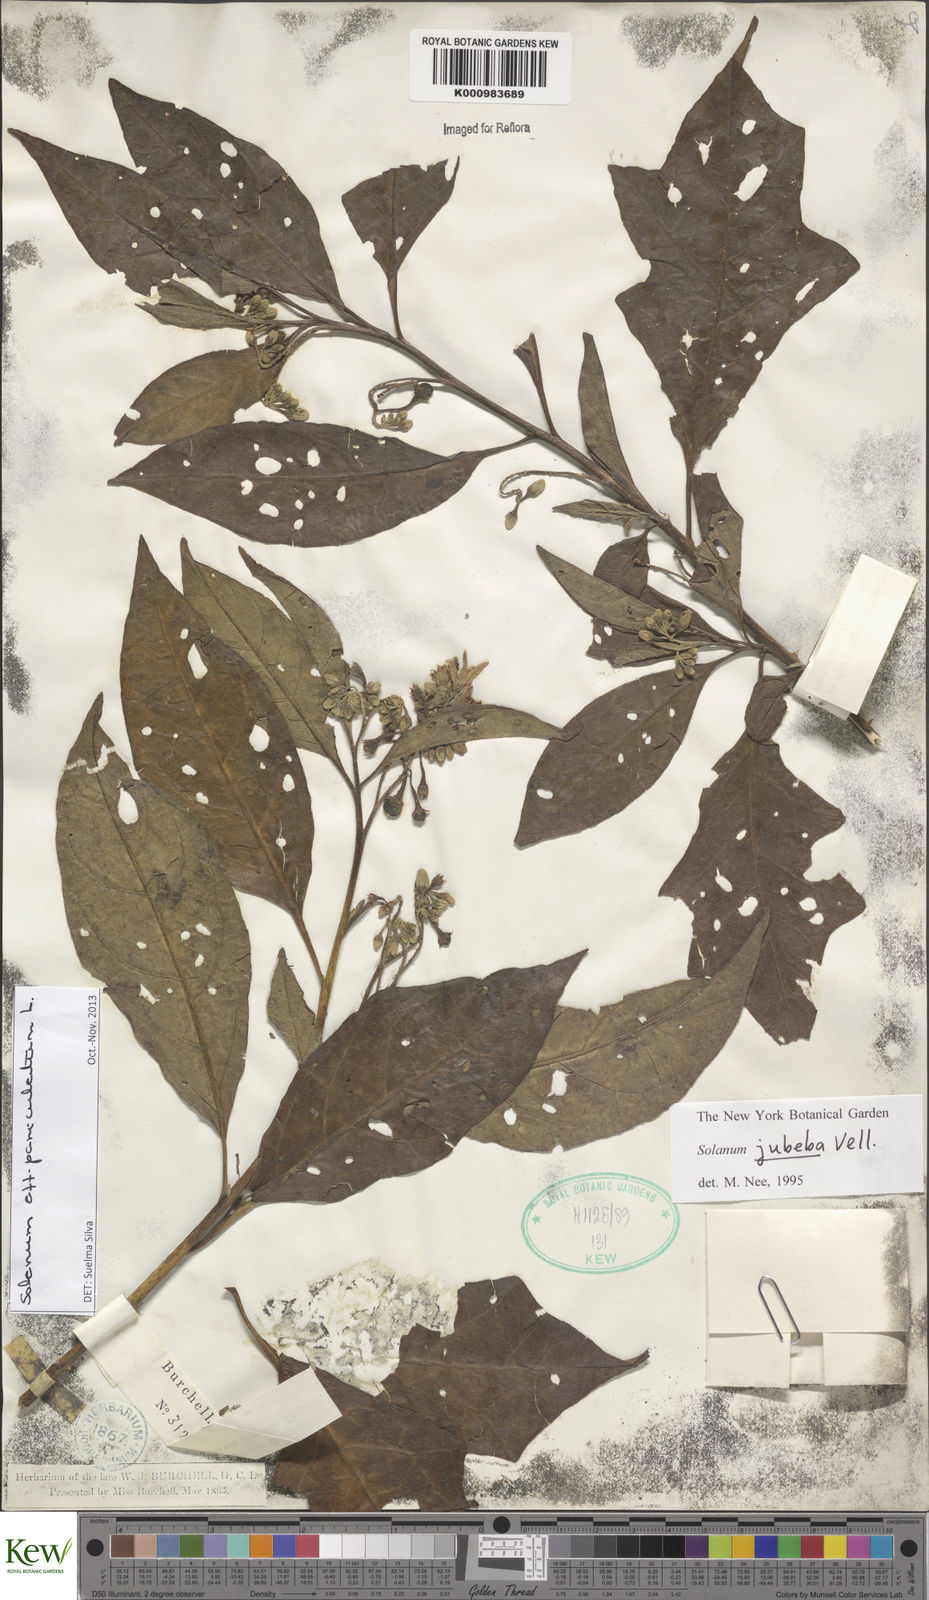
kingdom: Plantae
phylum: Tracheophyta
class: Magnoliopsida
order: Solanales
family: Solanaceae
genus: Solanum
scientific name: Solanum paniculatum
